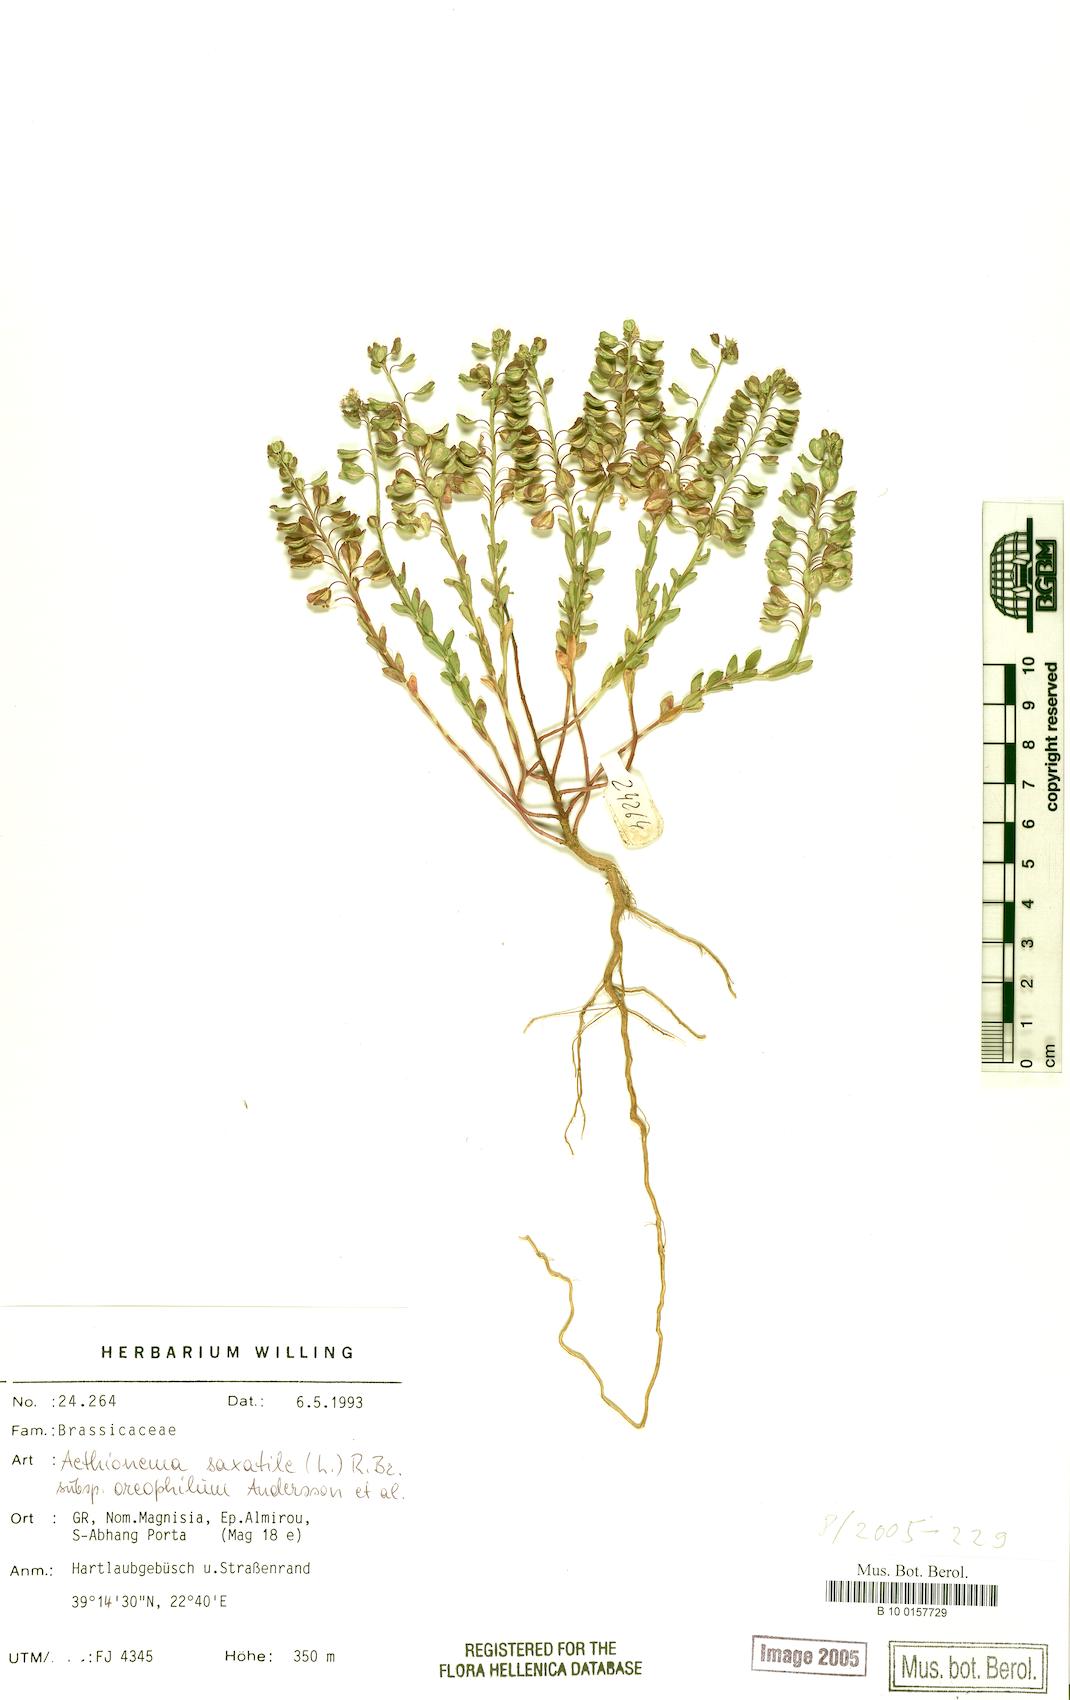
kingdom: Plantae
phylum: Tracheophyta
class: Magnoliopsida
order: Brassicales
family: Brassicaceae
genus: Aethionema
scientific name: Aethionema saxatile
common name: Burnt candytuft
